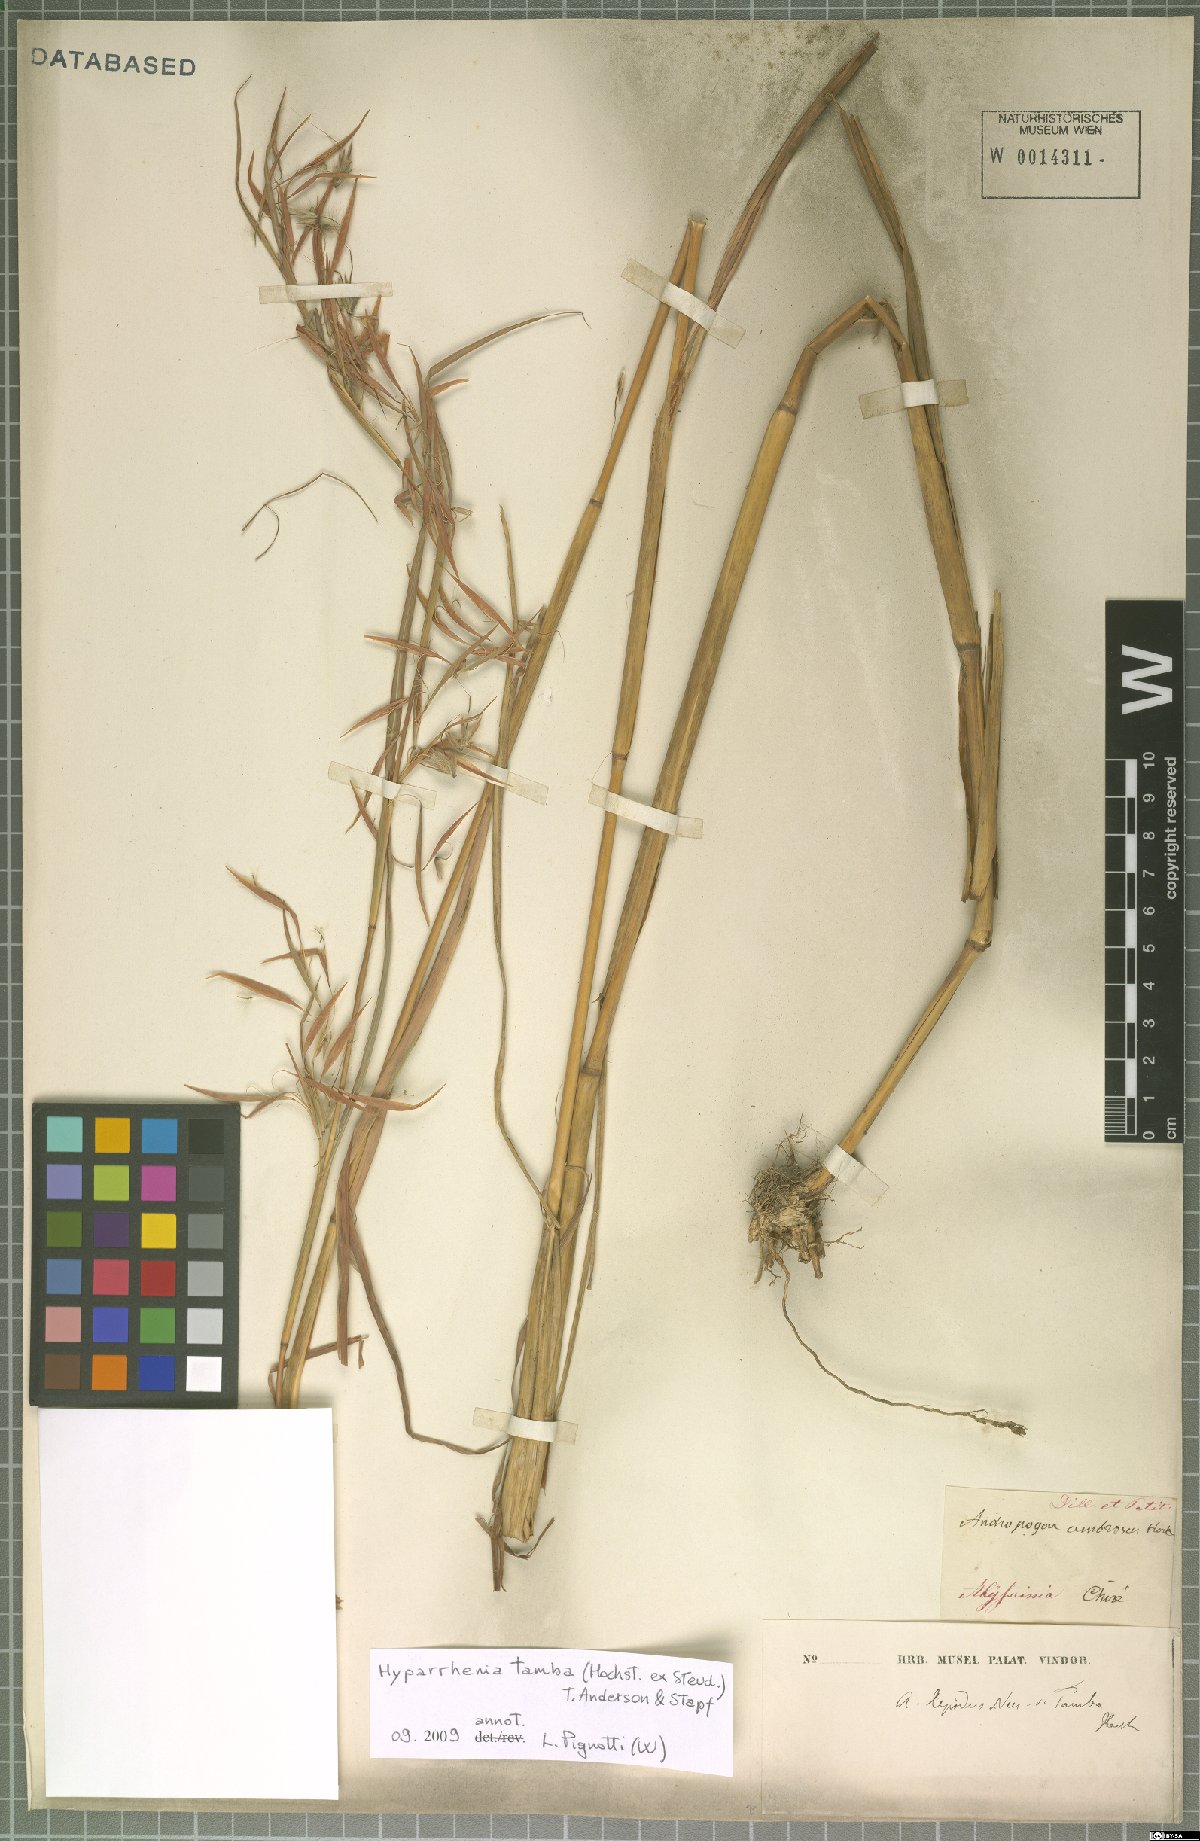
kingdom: Plantae
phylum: Tracheophyta
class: Liliopsida
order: Poales
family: Poaceae
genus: Hyparrhenia
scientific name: Hyparrhenia tamba
